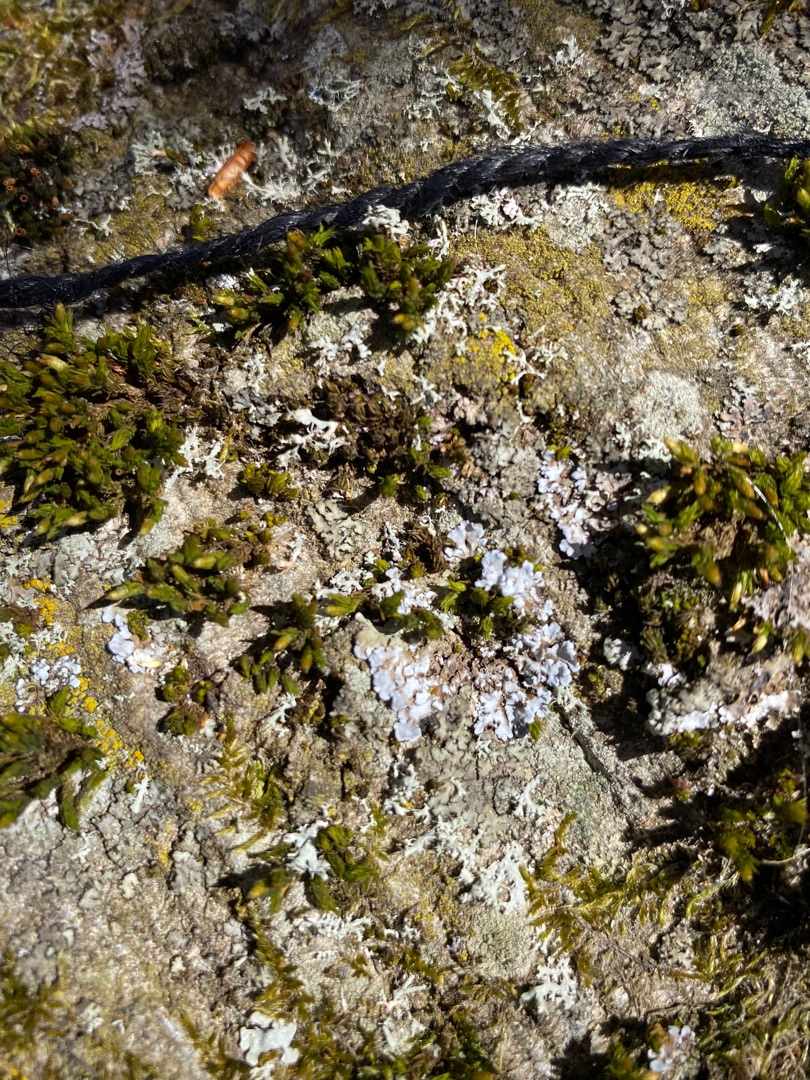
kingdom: Plantae
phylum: Bryophyta
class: Bryopsida
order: Orthotrichales
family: Orthotrichaceae
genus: Lewinskya
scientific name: Lewinskya affinis
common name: Almindelig furehætte
